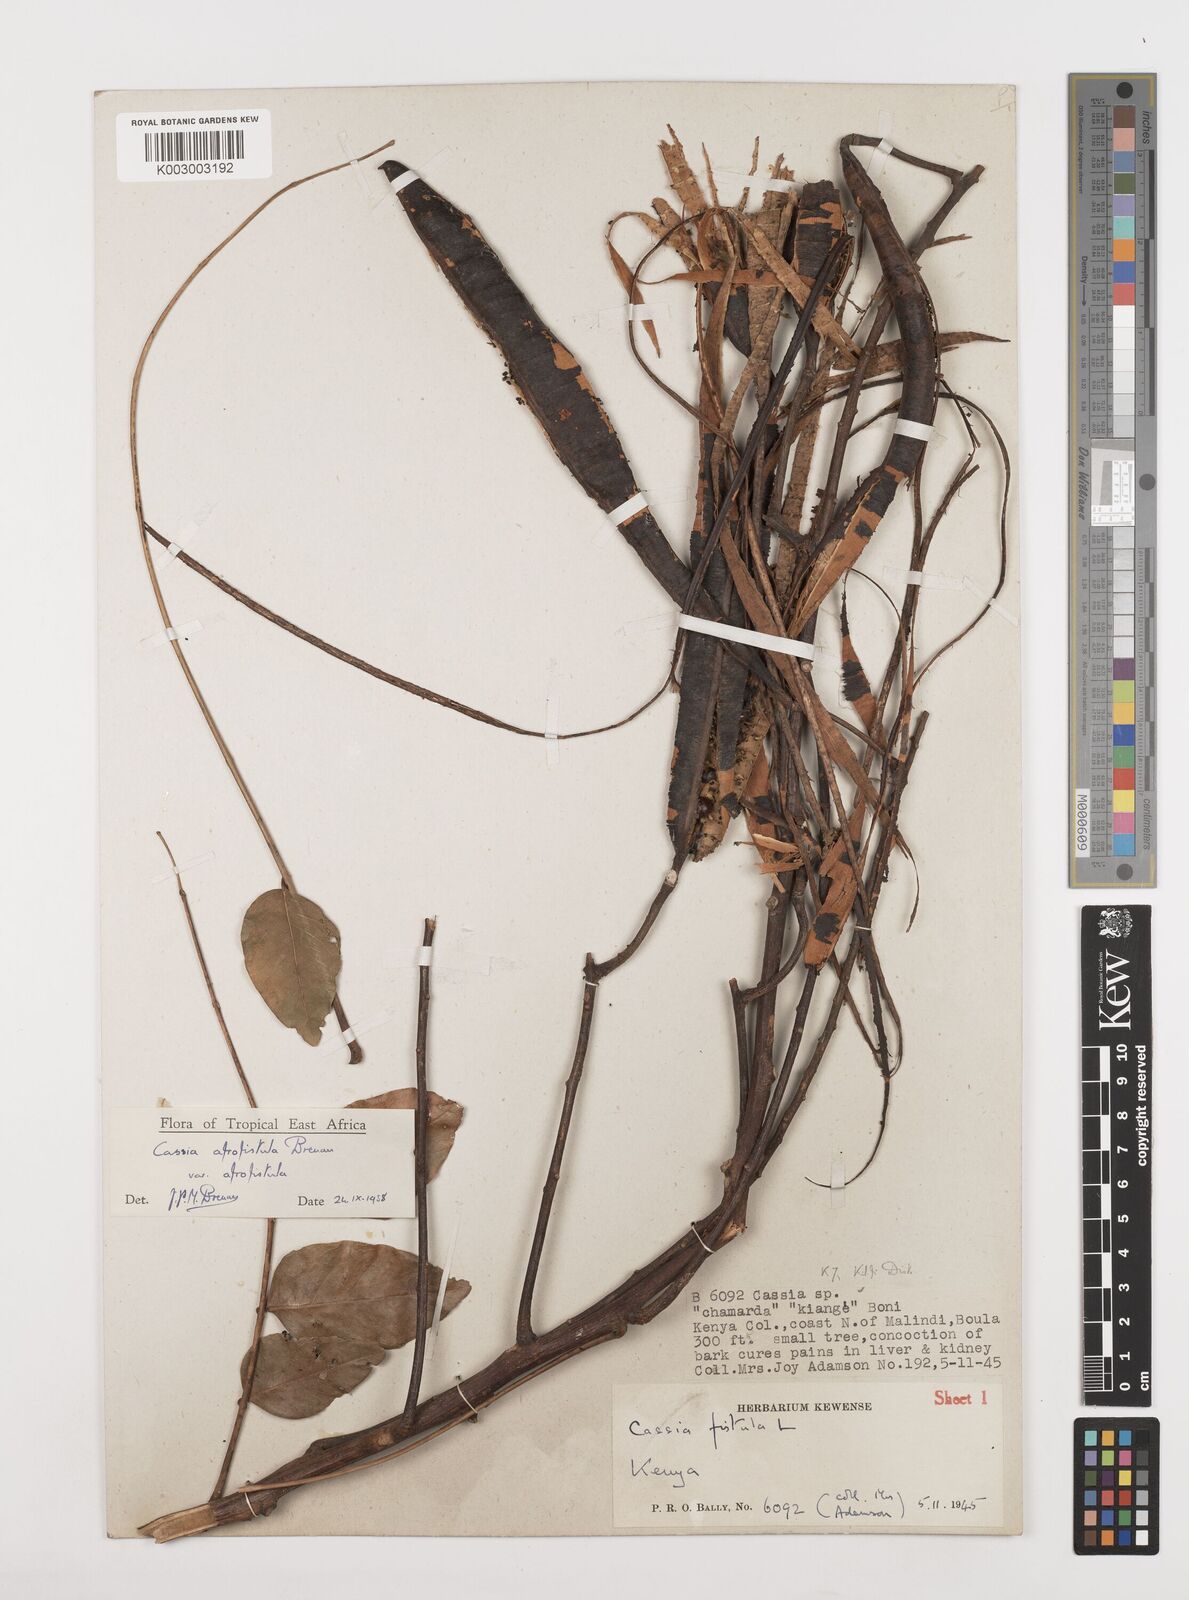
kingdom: Plantae
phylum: Tracheophyta
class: Magnoliopsida
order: Fabales
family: Fabaceae
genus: Cassia
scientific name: Cassia afrofistula
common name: Kenyan shower
